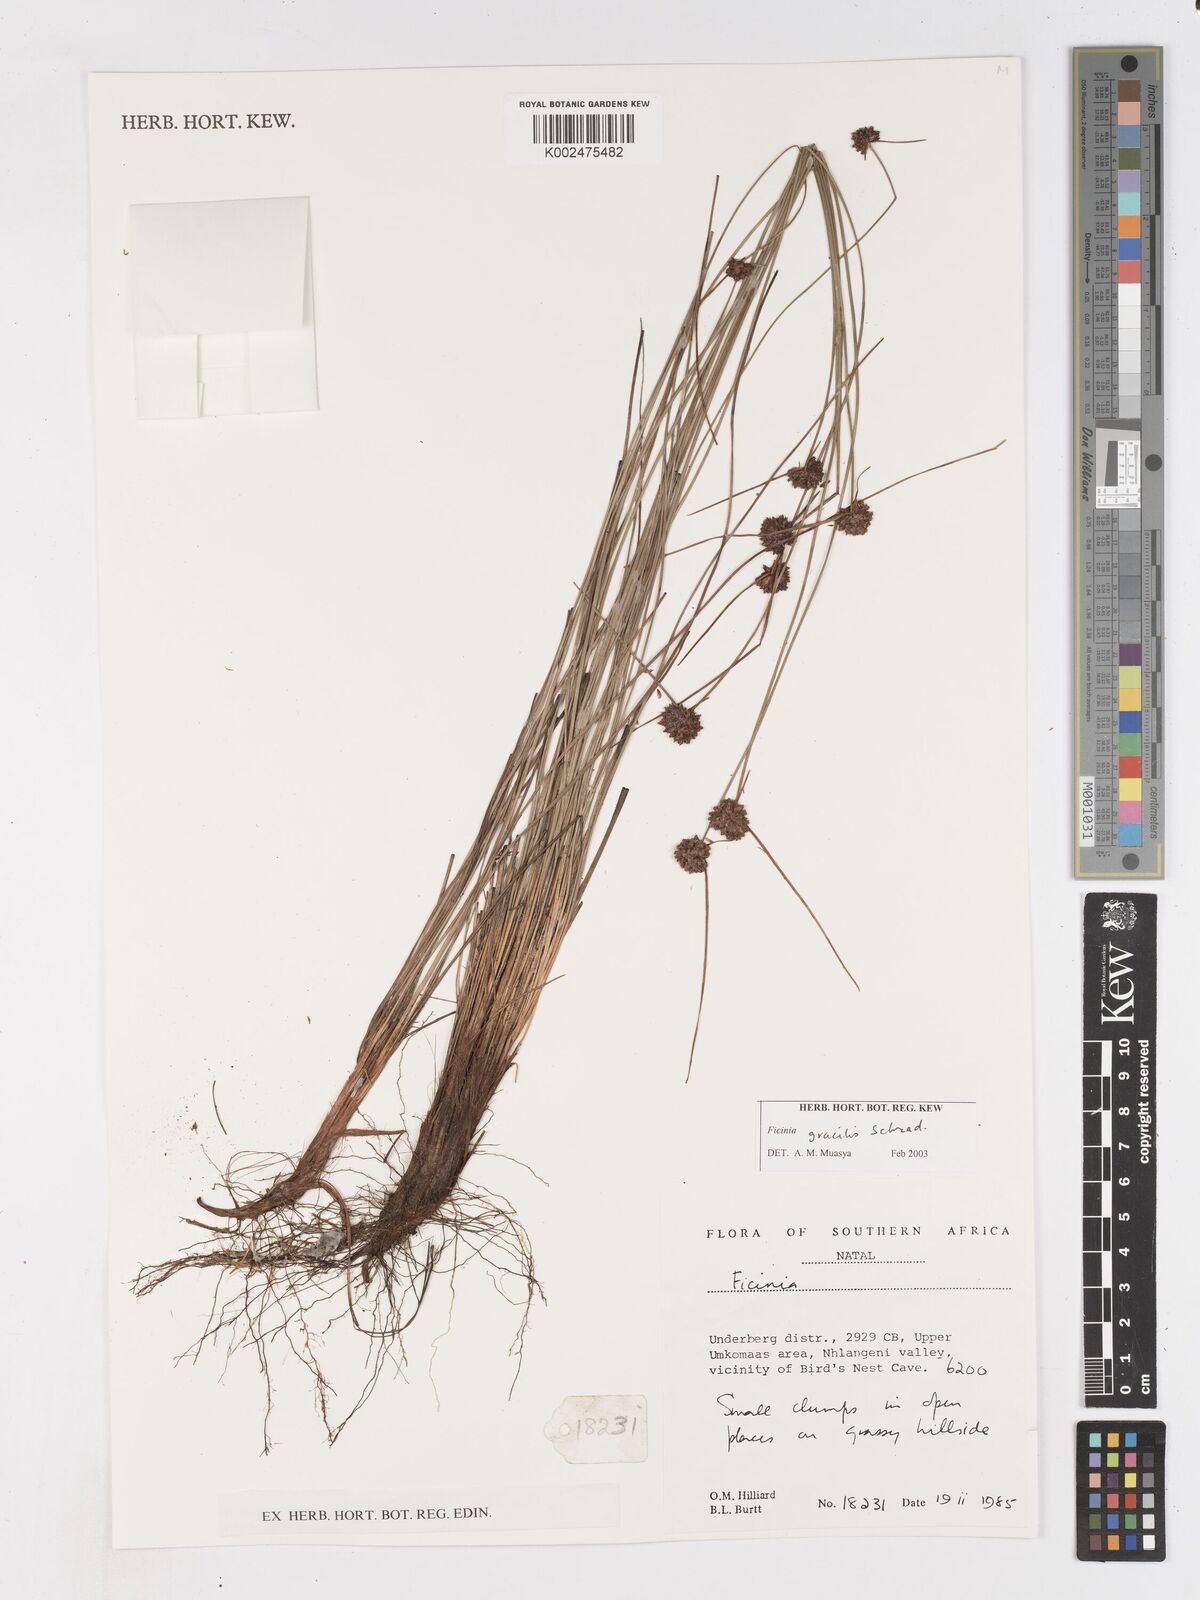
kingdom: Plantae
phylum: Tracheophyta
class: Liliopsida
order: Poales
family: Cyperaceae
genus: Ficinia
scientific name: Ficinia gracilis
